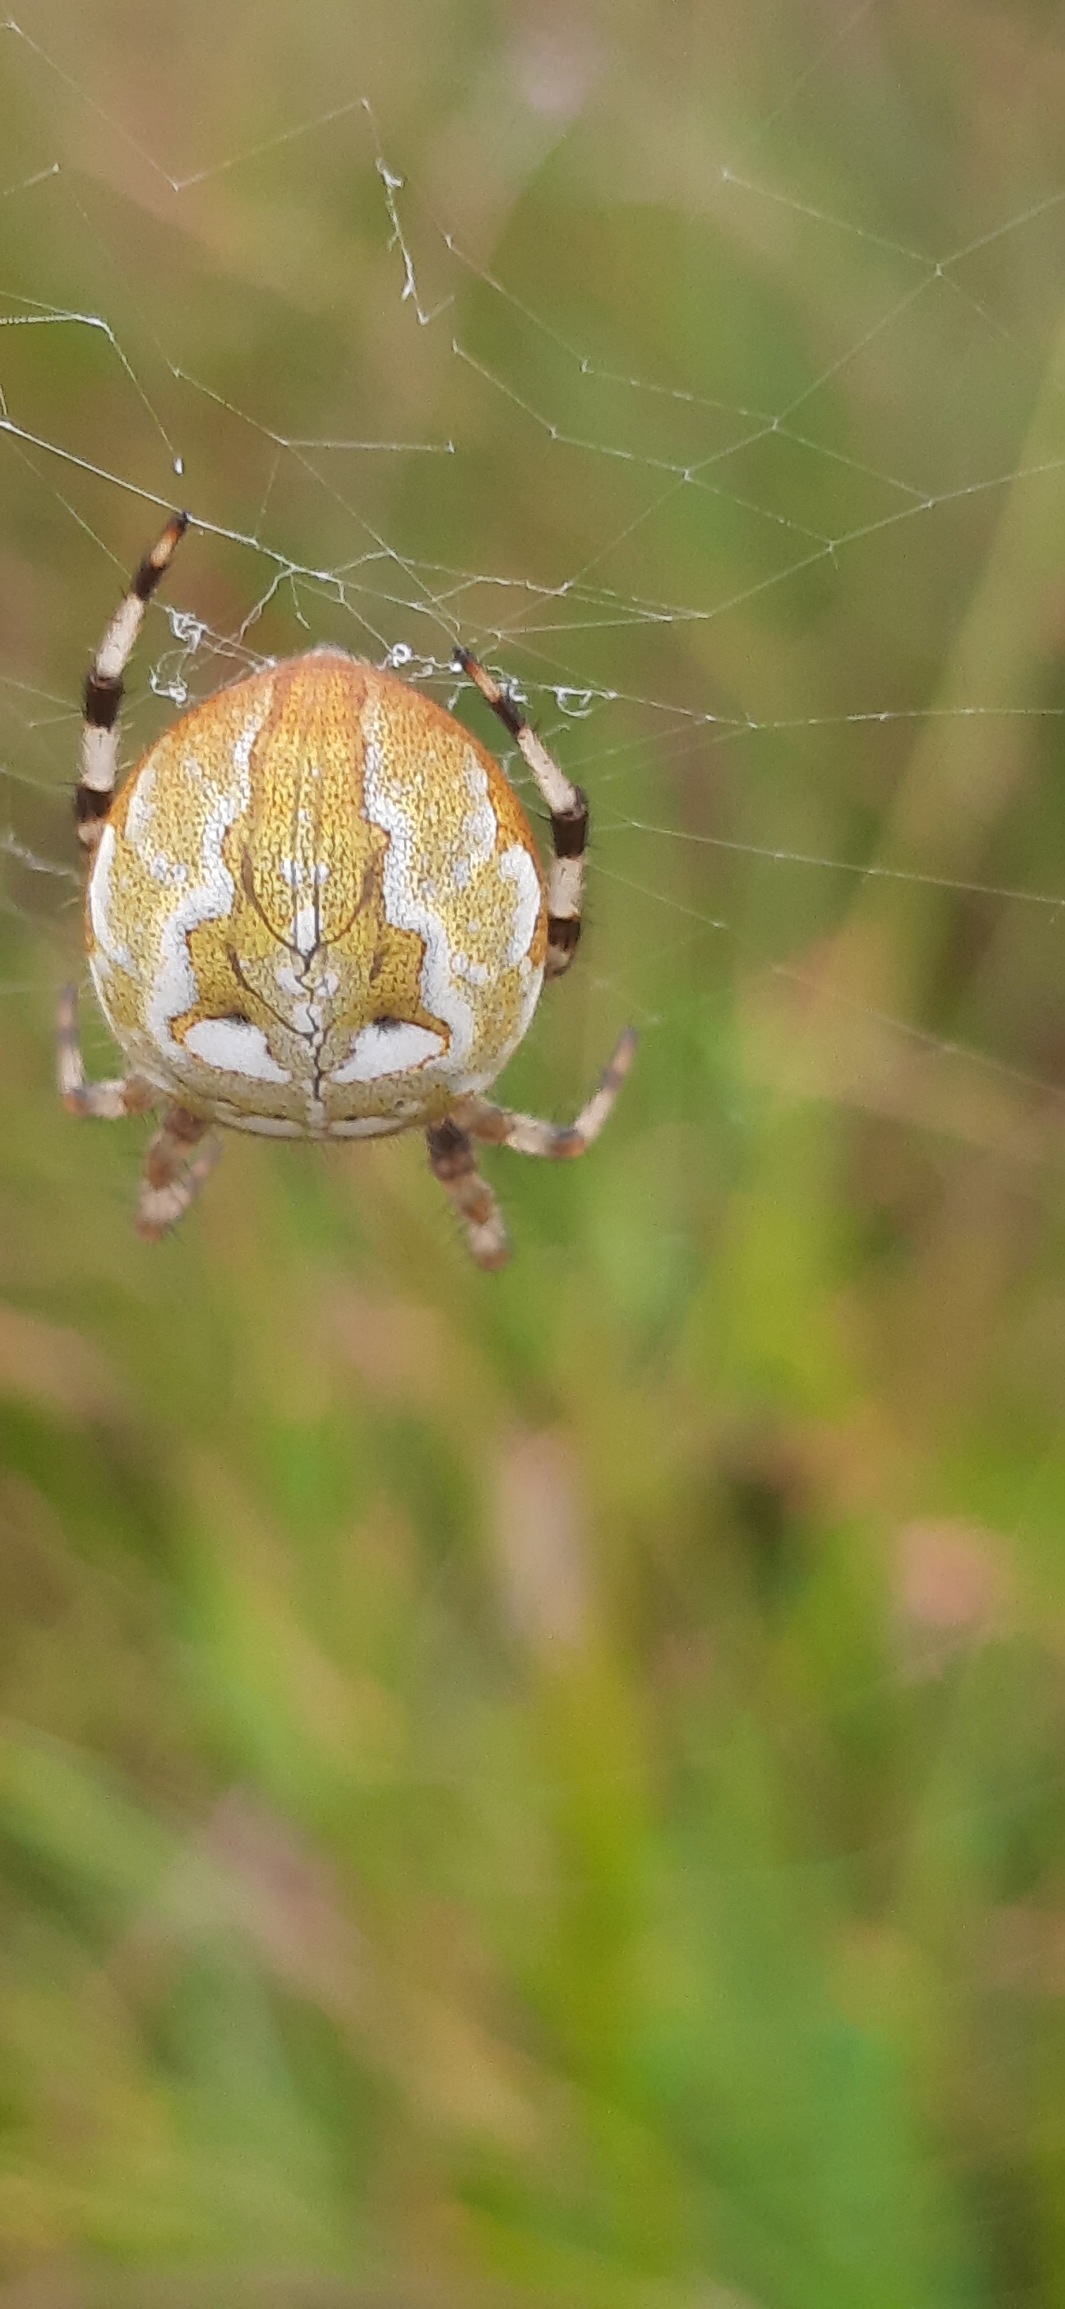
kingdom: Animalia
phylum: Arthropoda
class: Arachnida
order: Araneae
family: Araneidae
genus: Araneus
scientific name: Araneus quadratus
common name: Kvadratedderkop
